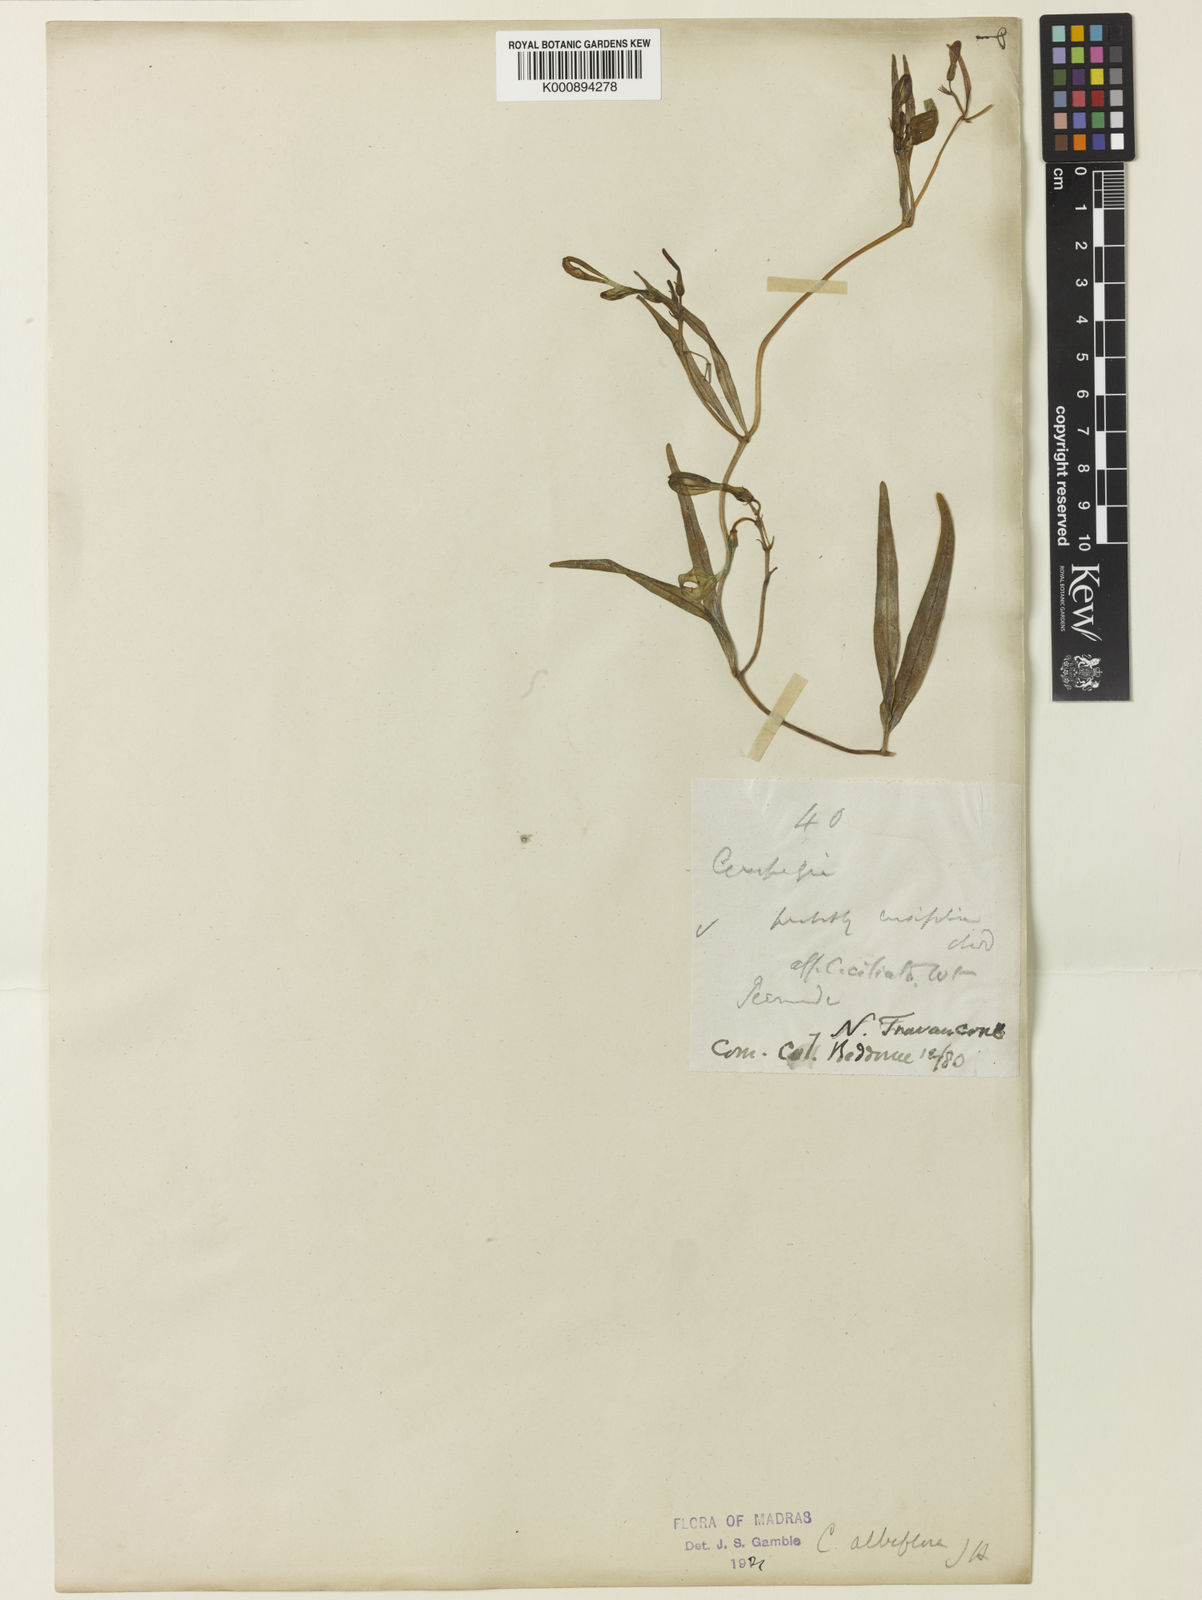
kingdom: Plantae
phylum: Tracheophyta
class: Magnoliopsida
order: Gentianales
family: Apocynaceae
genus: Ceropegia
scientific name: Ceropegia ciliata
